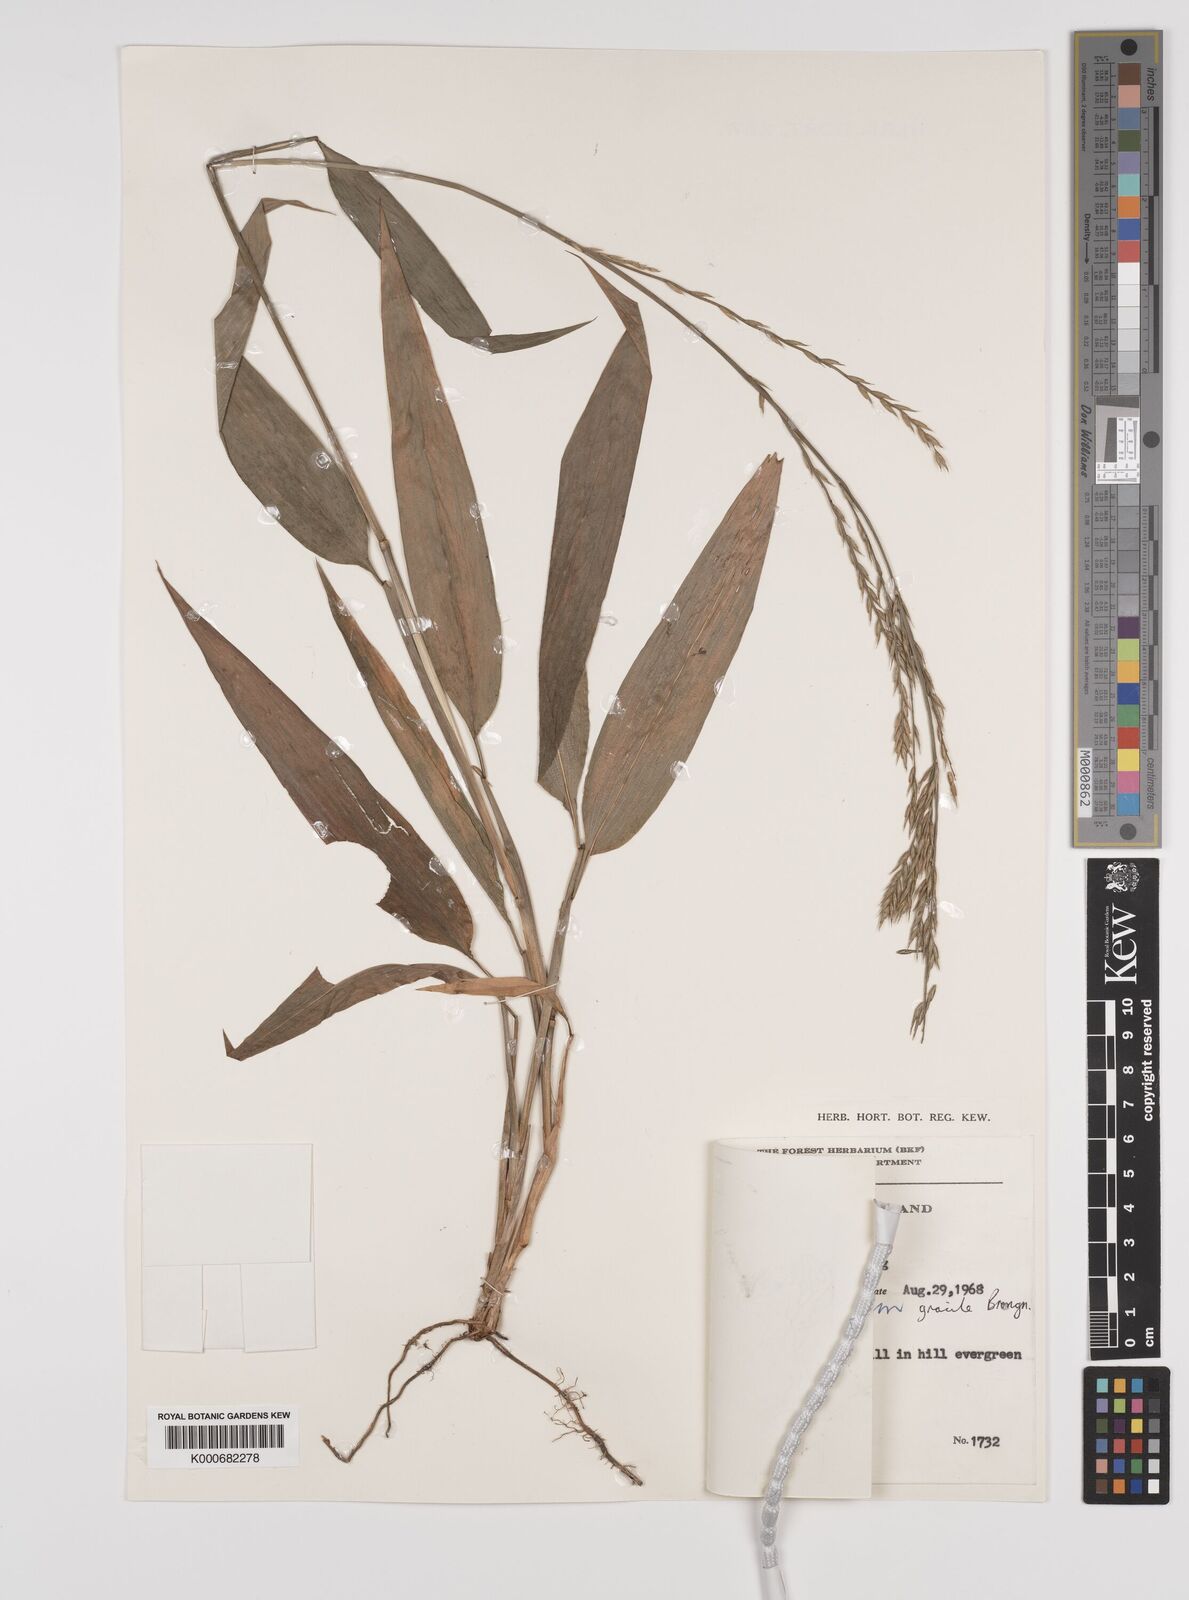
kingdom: Plantae
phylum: Tracheophyta
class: Liliopsida
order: Poales
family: Poaceae
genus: Lophatherum
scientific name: Lophatherum gracile
